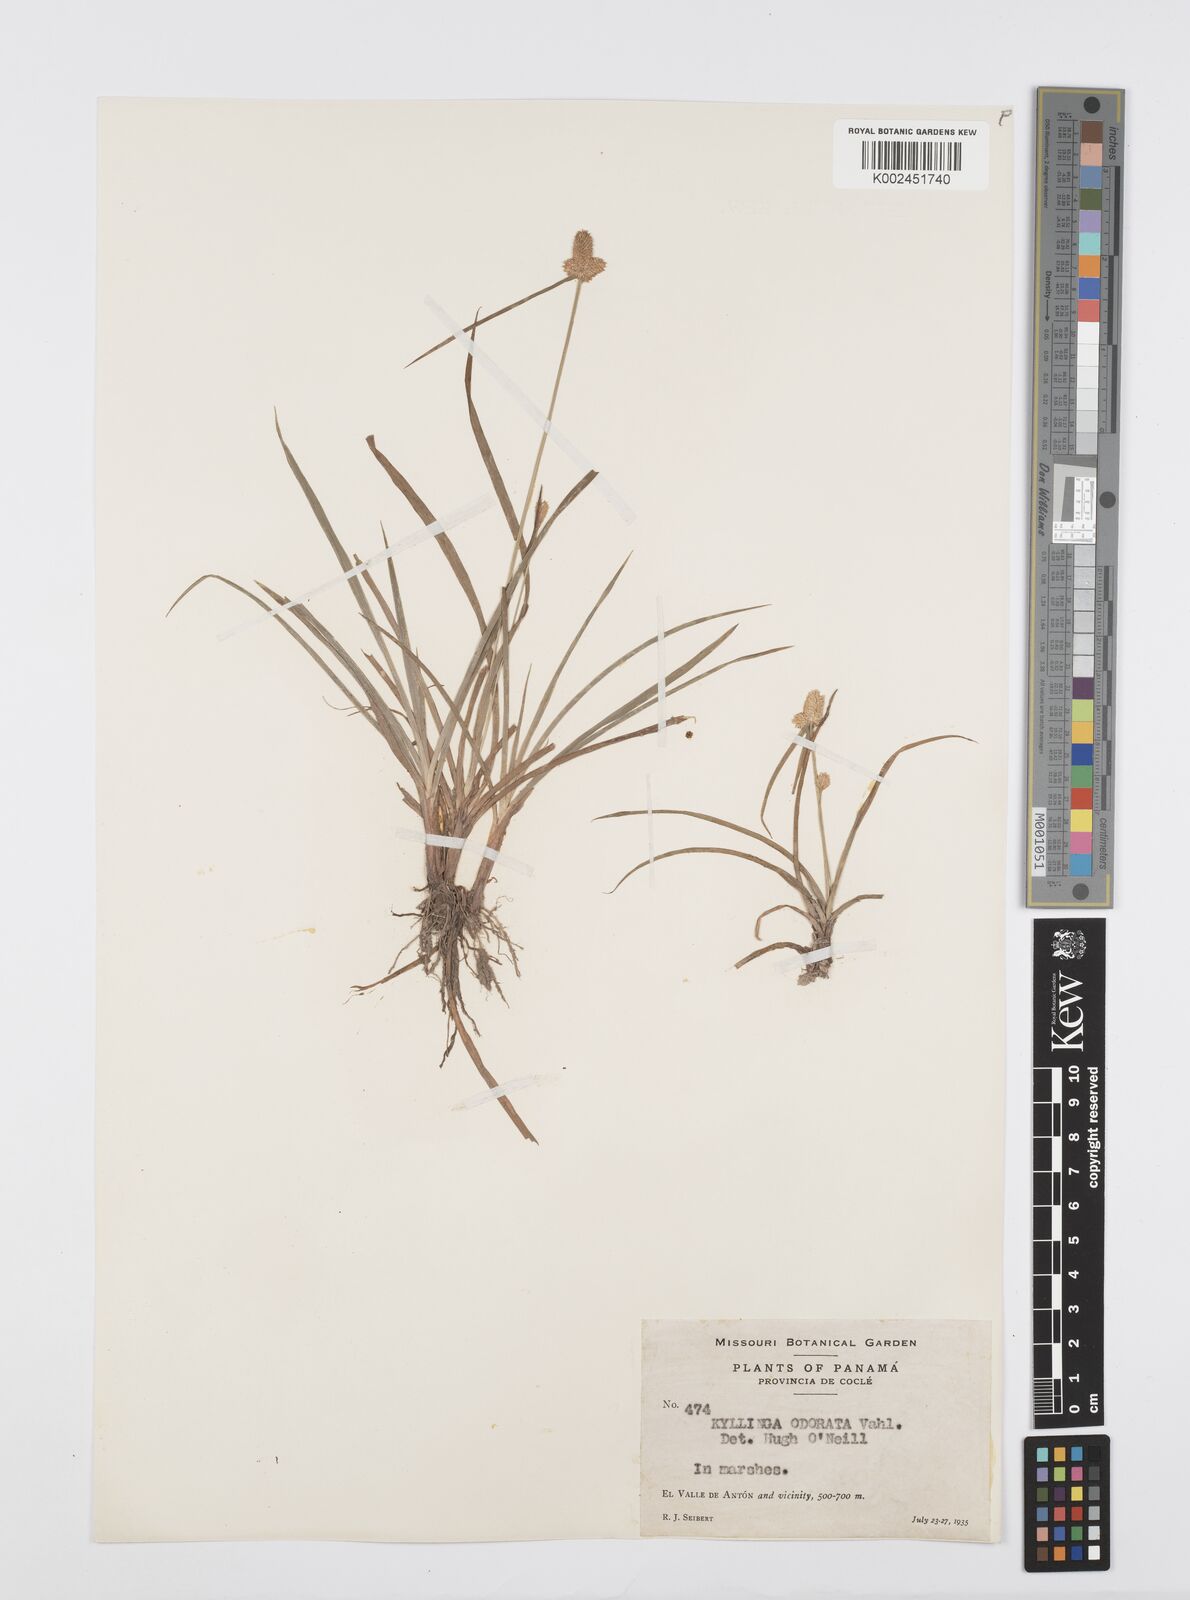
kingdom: Plantae
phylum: Tracheophyta
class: Liliopsida
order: Poales
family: Cyperaceae
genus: Cyperus
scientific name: Cyperus
